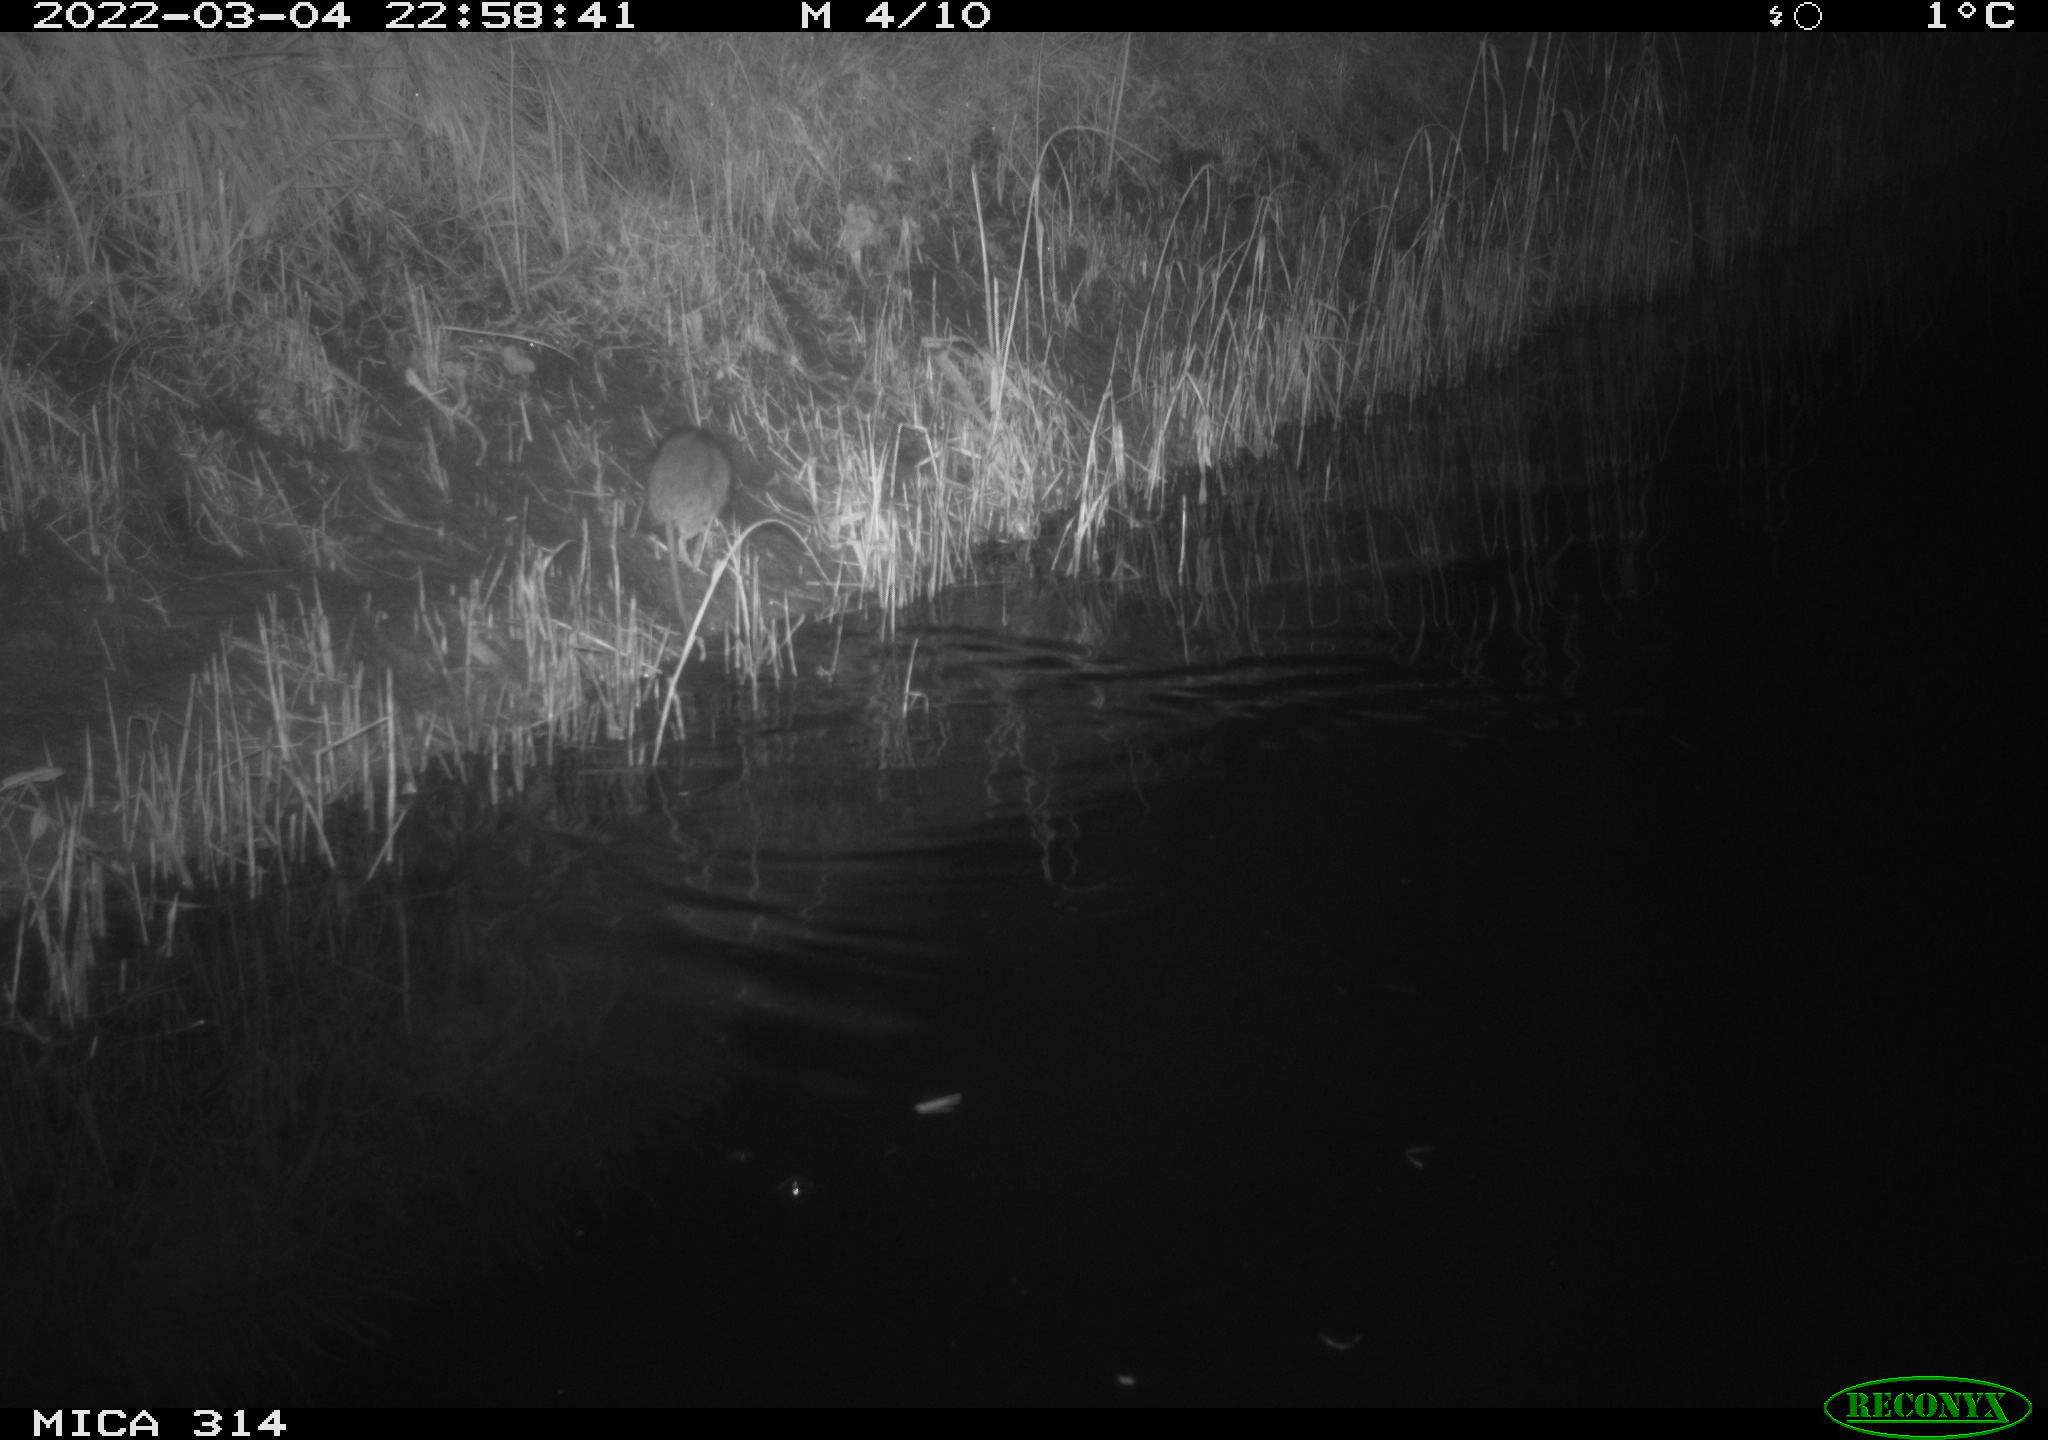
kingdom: Animalia
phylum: Chordata
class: Mammalia
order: Rodentia
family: Muridae
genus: Rattus
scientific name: Rattus norvegicus
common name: Brown rat
